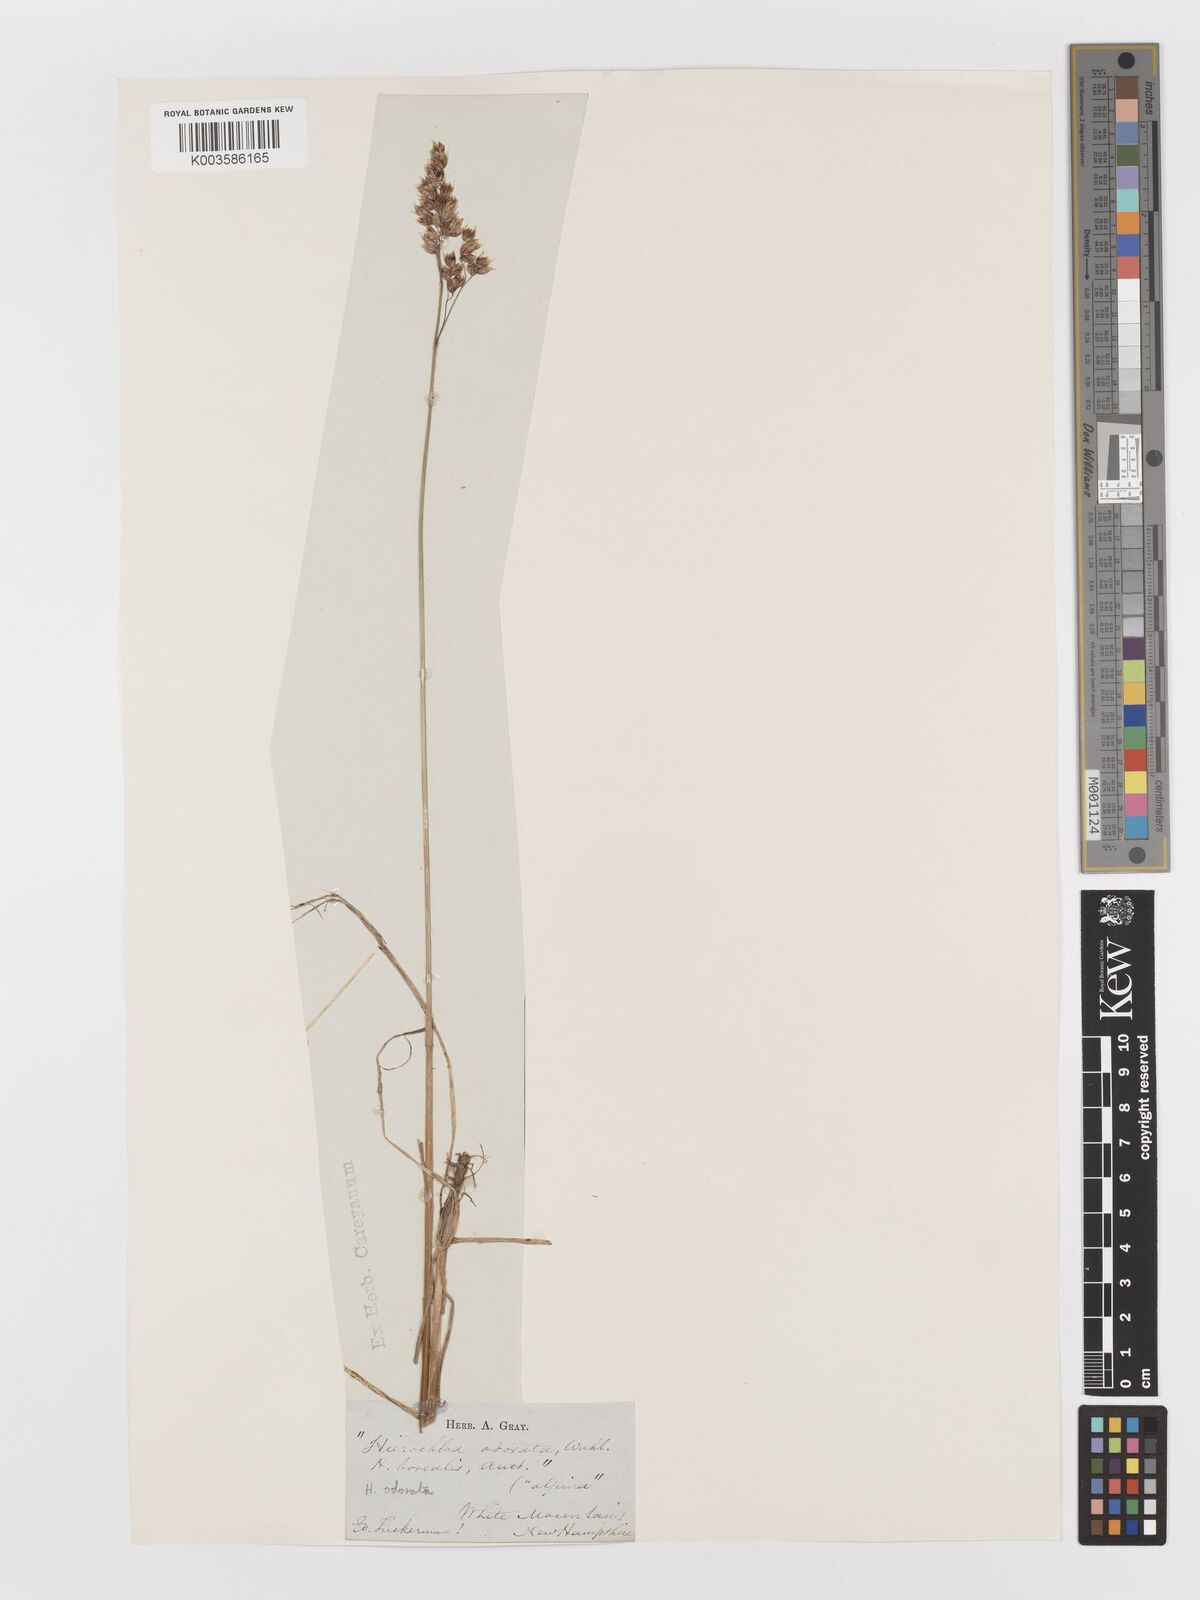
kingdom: Plantae
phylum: Tracheophyta
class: Liliopsida
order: Poales
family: Poaceae
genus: Anthoxanthum
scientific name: Anthoxanthum nitens
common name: Holy grass
